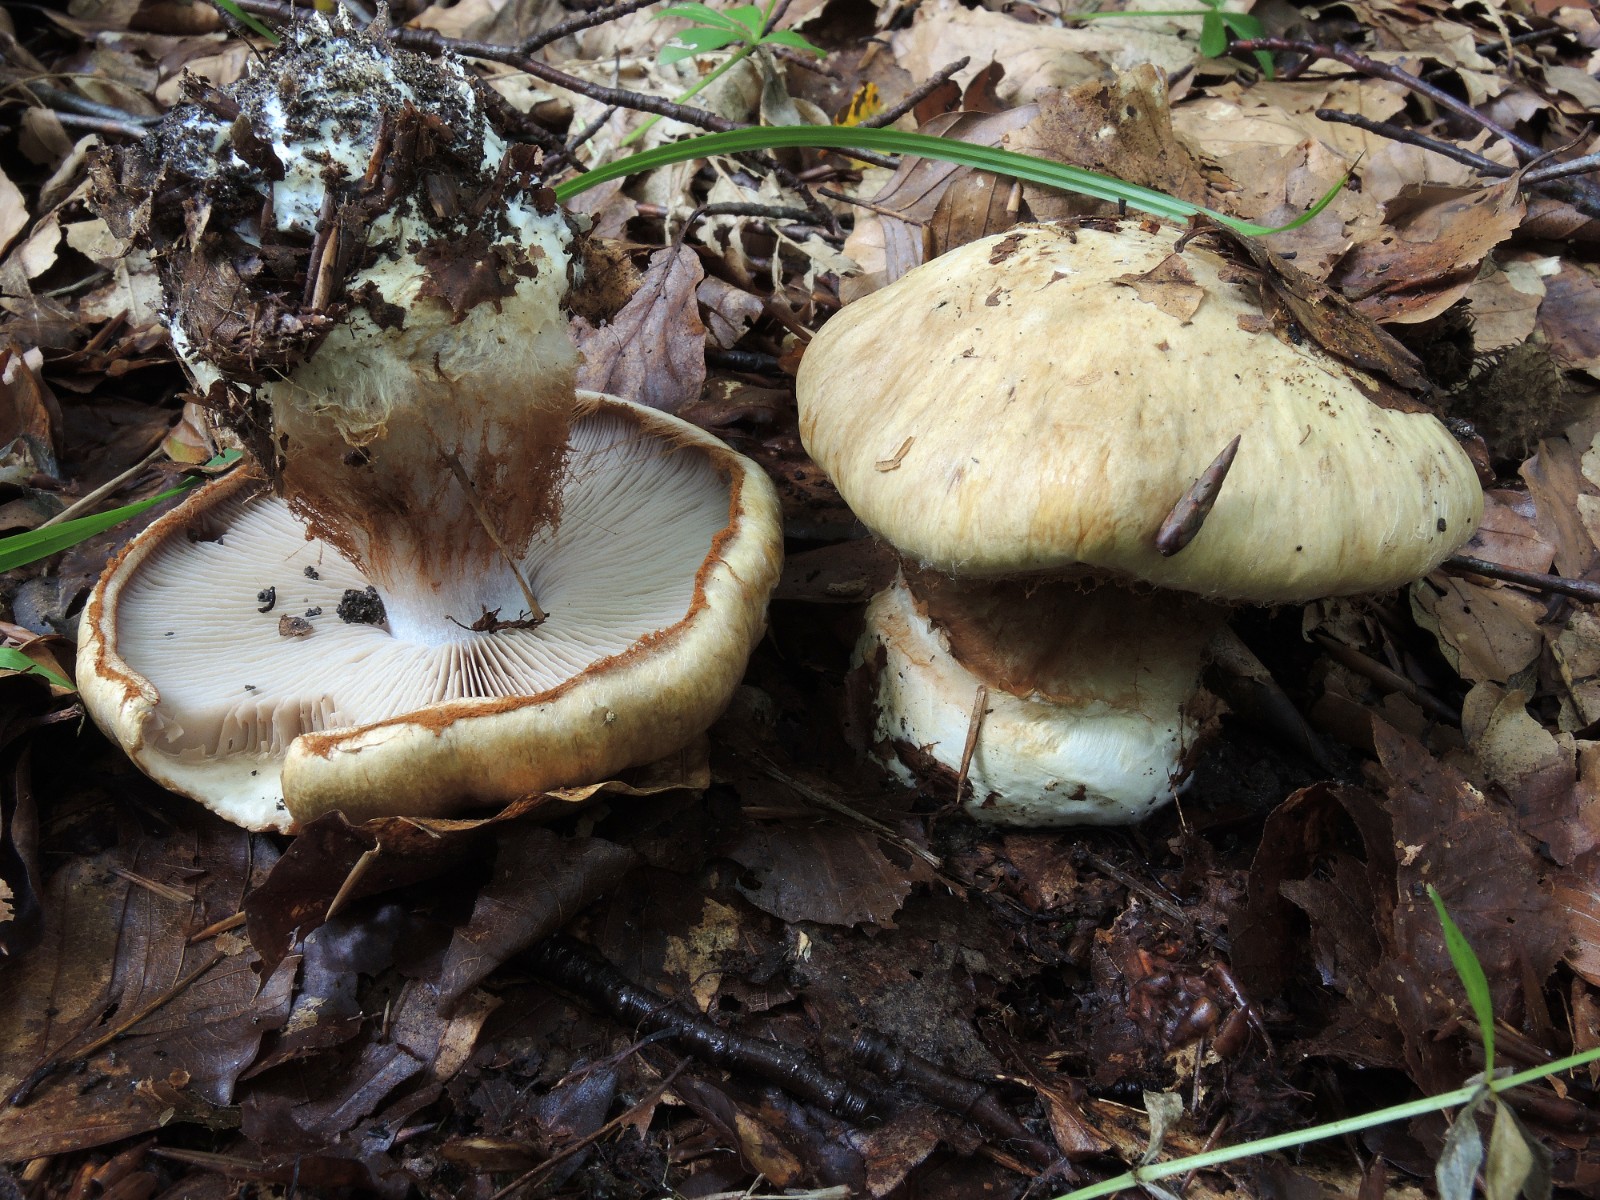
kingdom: Fungi
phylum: Basidiomycota
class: Agaricomycetes
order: Agaricales
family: Cortinariaceae
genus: Cortinarius
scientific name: Cortinarius anserinus
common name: bøge-slørhat
